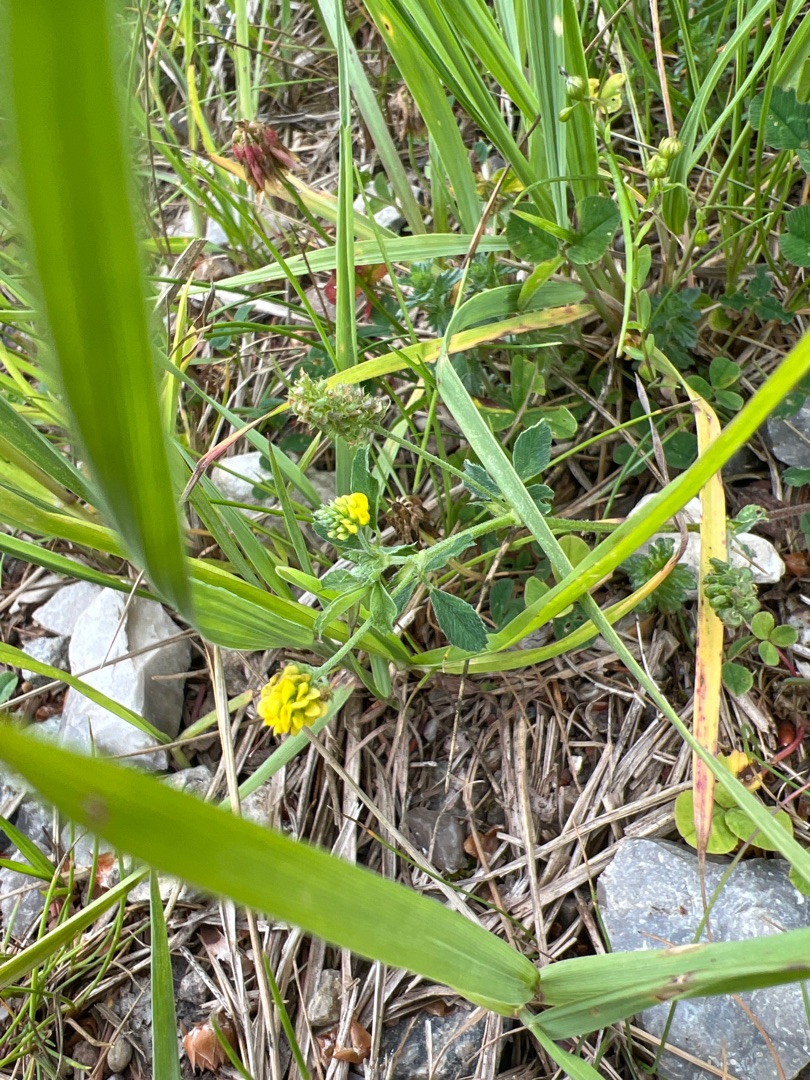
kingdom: Plantae
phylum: Tracheophyta
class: Magnoliopsida
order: Fabales
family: Fabaceae
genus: Medicago
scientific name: Medicago lupulina
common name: Humle-sneglebælg
